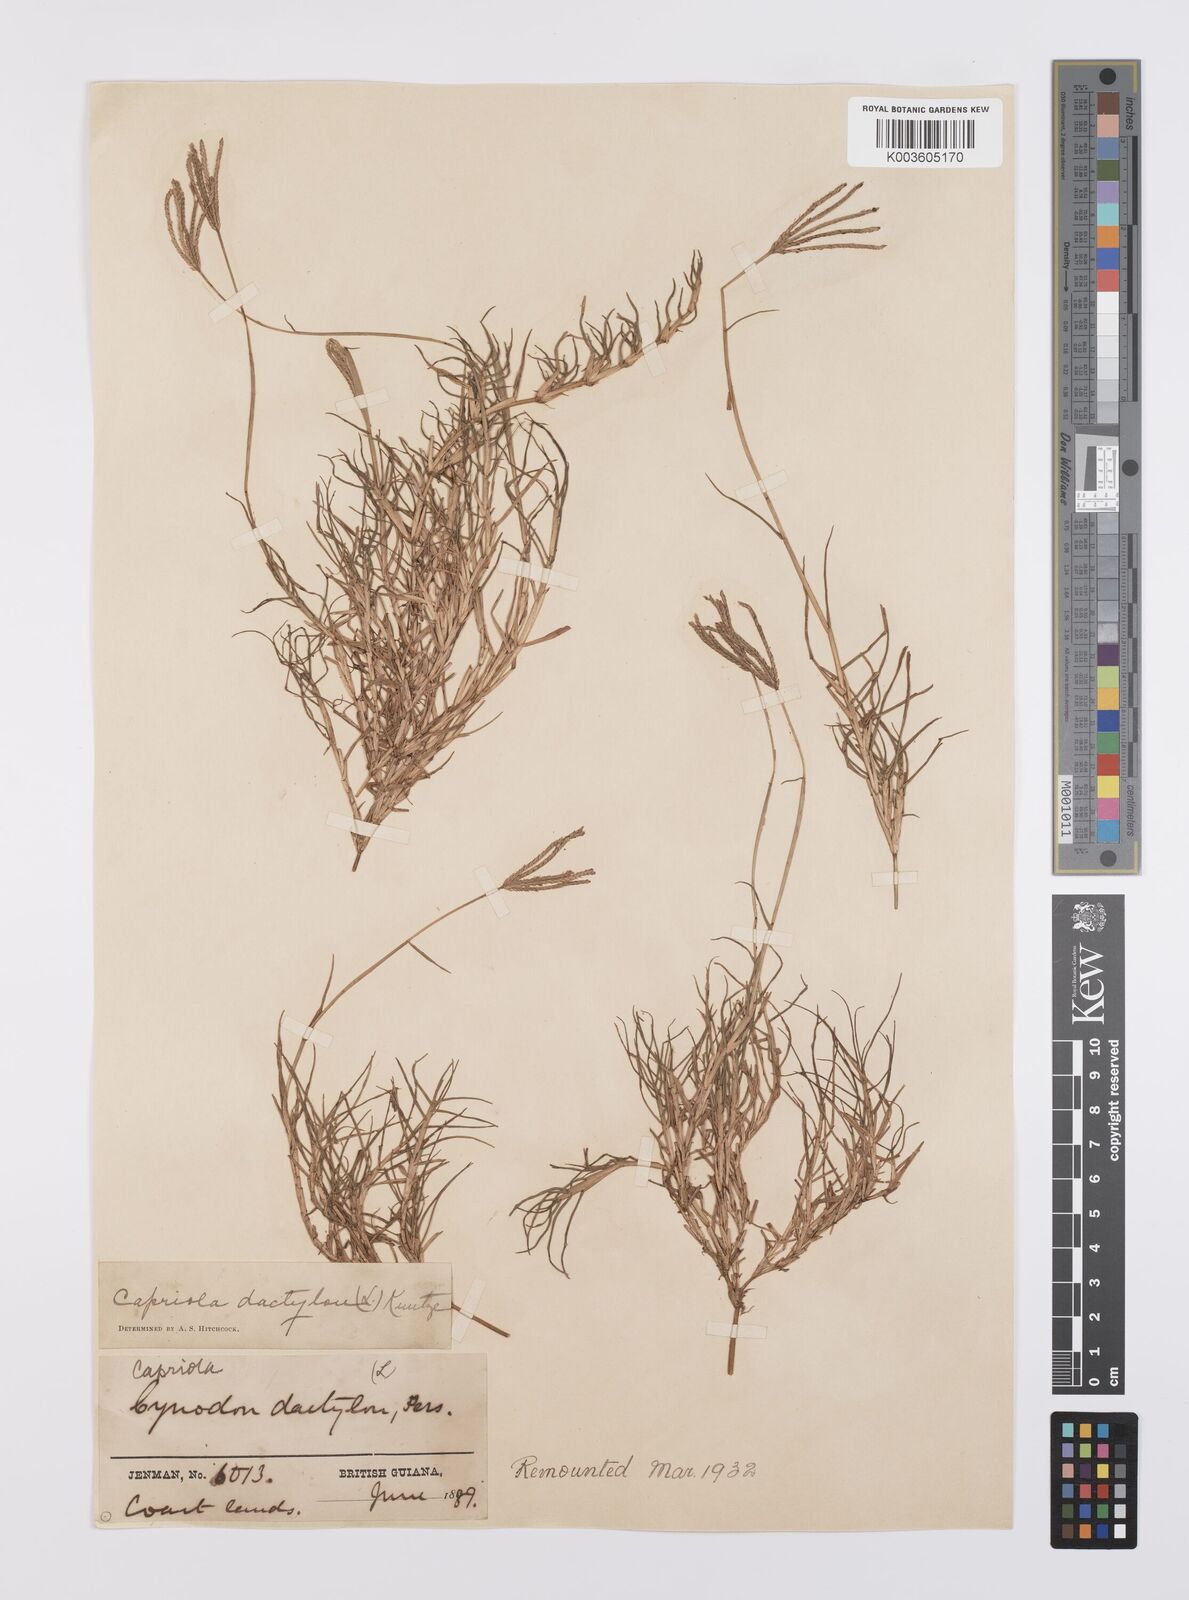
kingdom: Plantae
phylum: Tracheophyta
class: Liliopsida
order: Poales
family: Poaceae
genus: Cynodon
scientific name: Cynodon dactylon
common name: Bermuda grass
